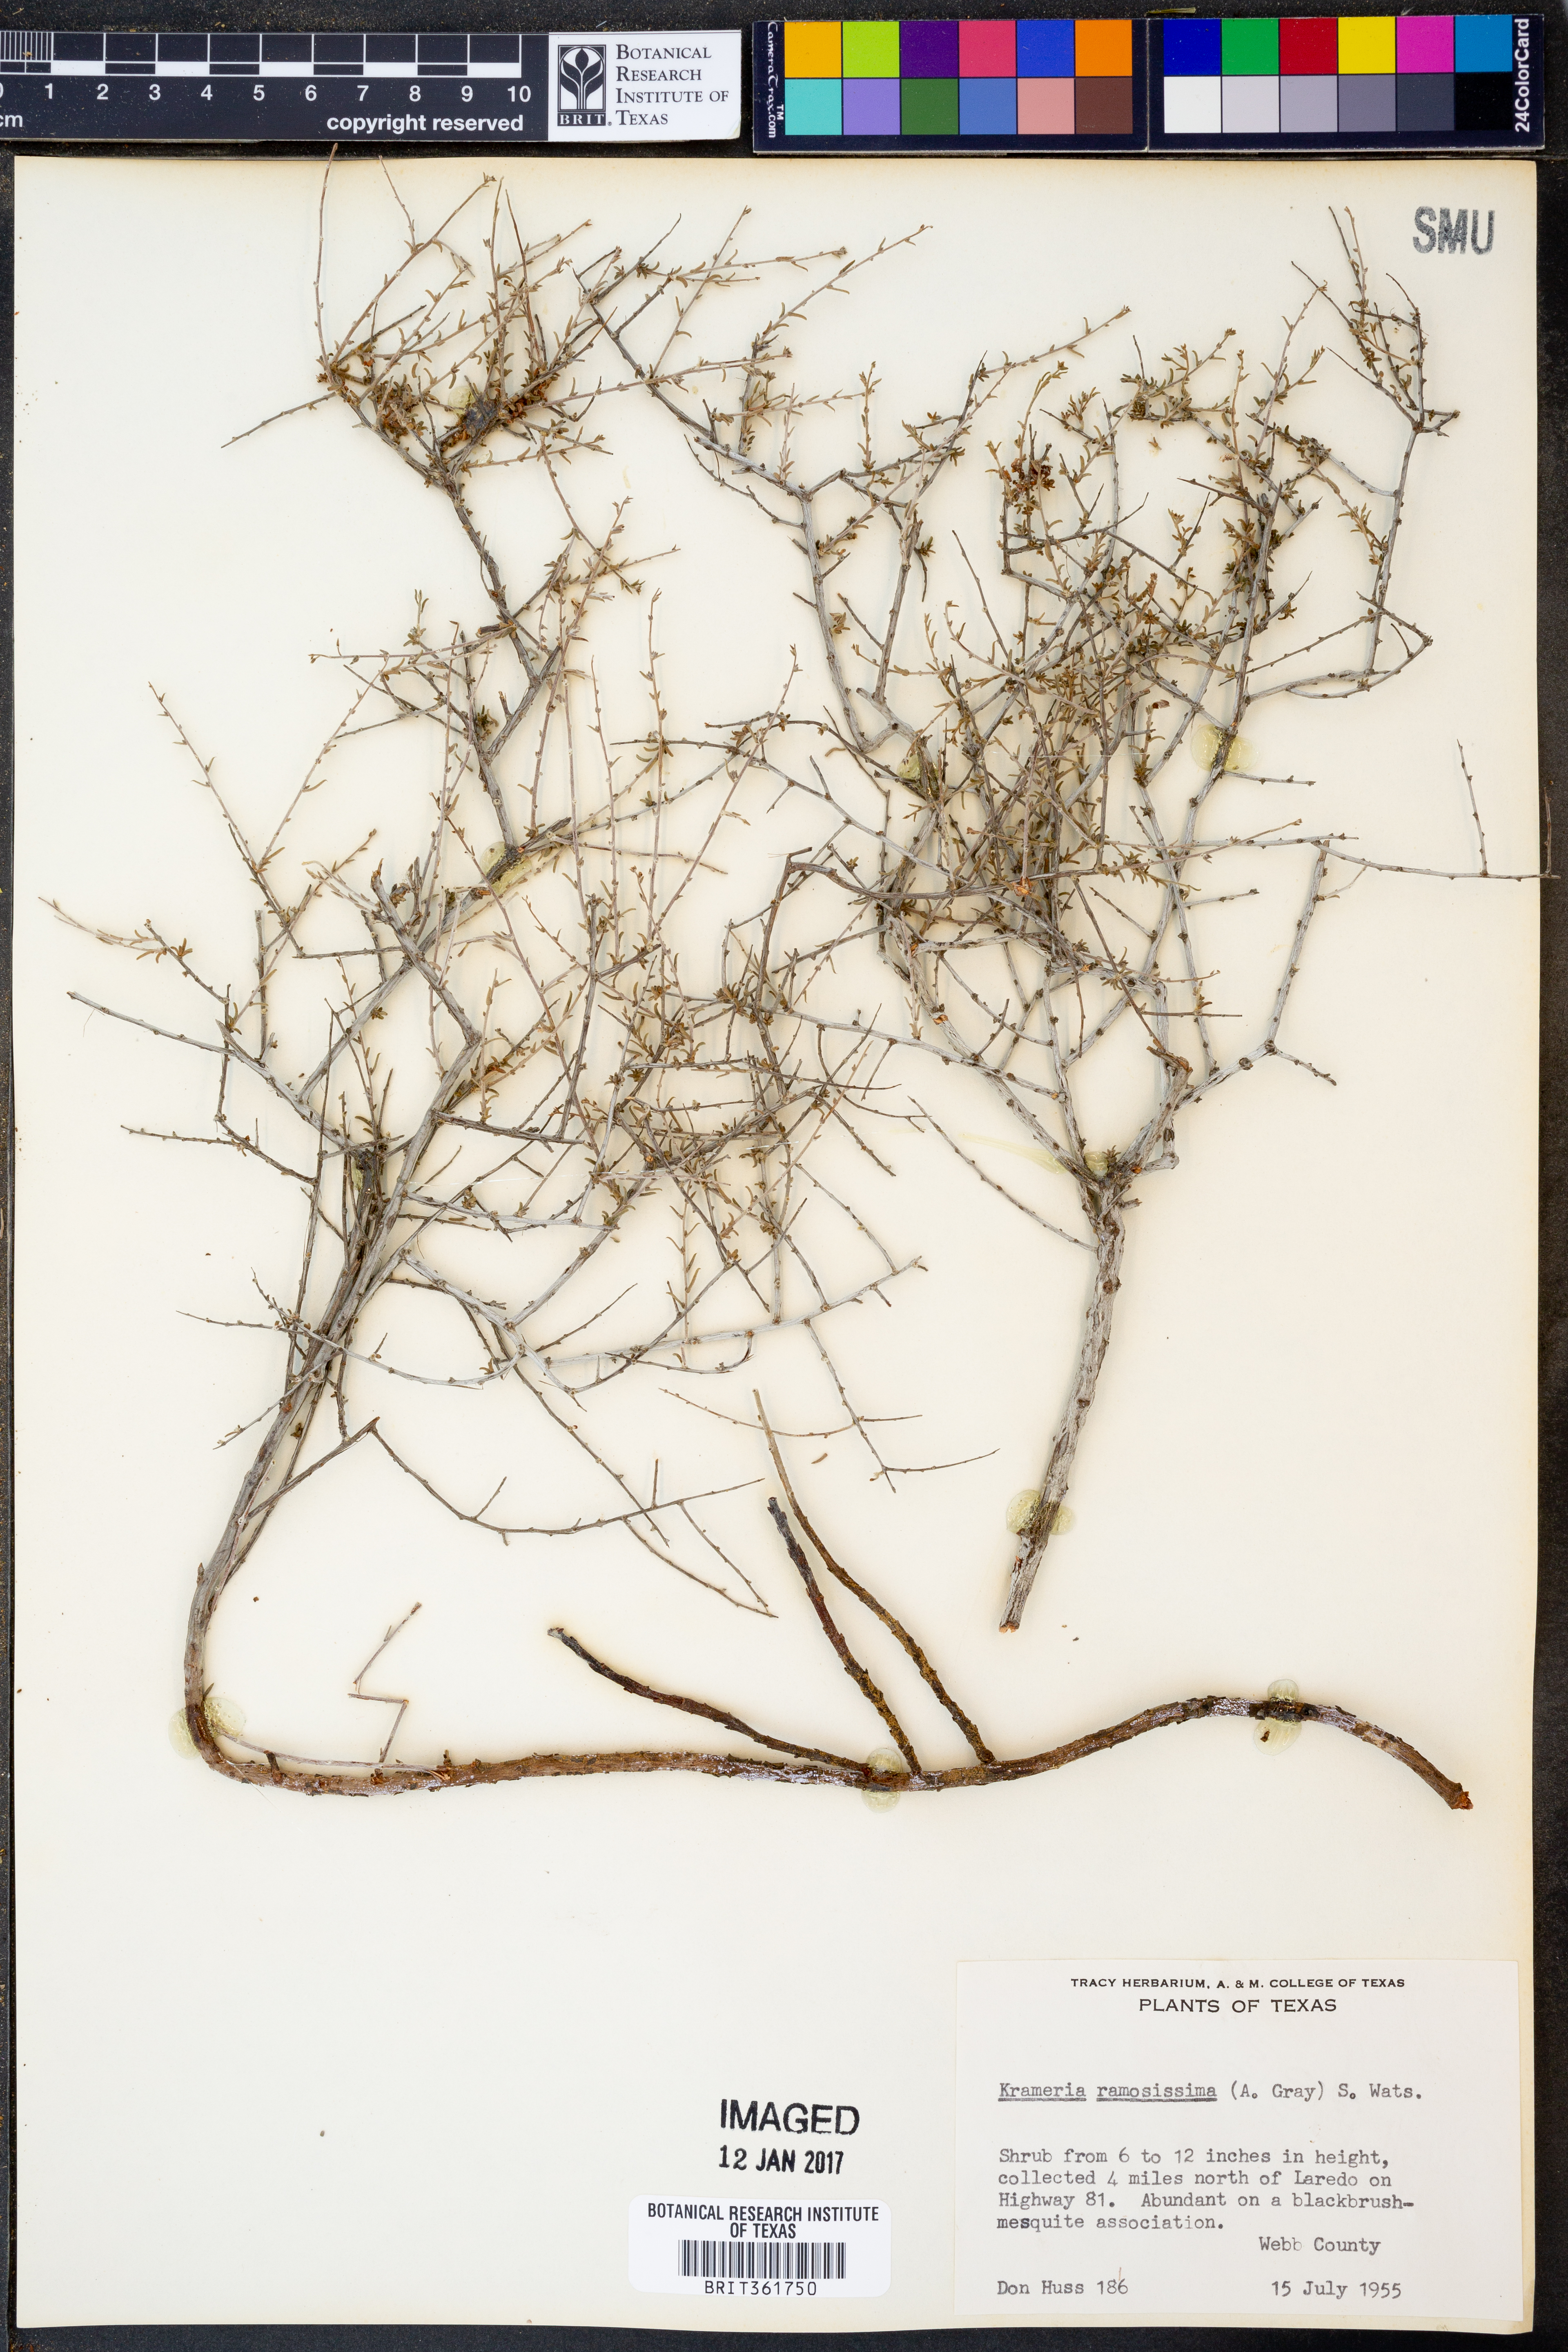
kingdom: Plantae
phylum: Tracheophyta
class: Magnoliopsida
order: Zygophyllales
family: Krameriaceae
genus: Krameria
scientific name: Krameria ramosissima
